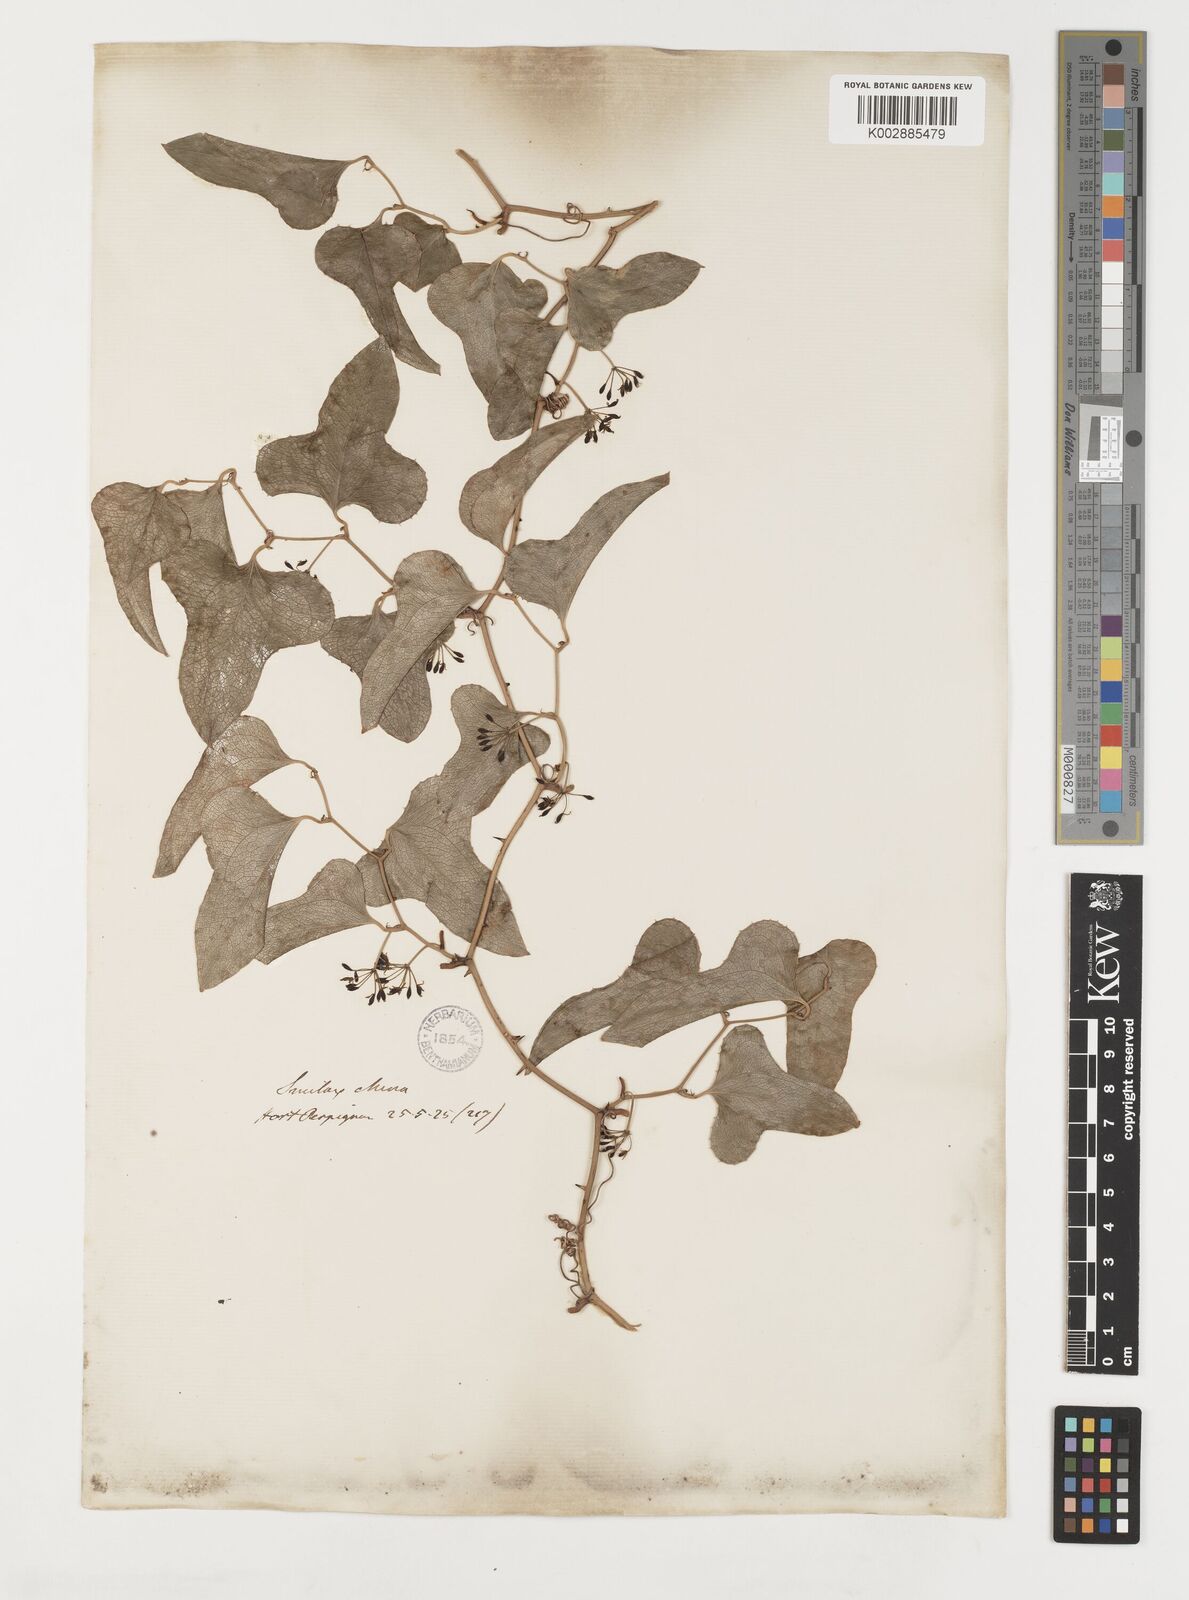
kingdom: Plantae
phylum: Tracheophyta
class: Liliopsida
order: Liliales
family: Smilacaceae
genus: Smilax
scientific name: Smilax
